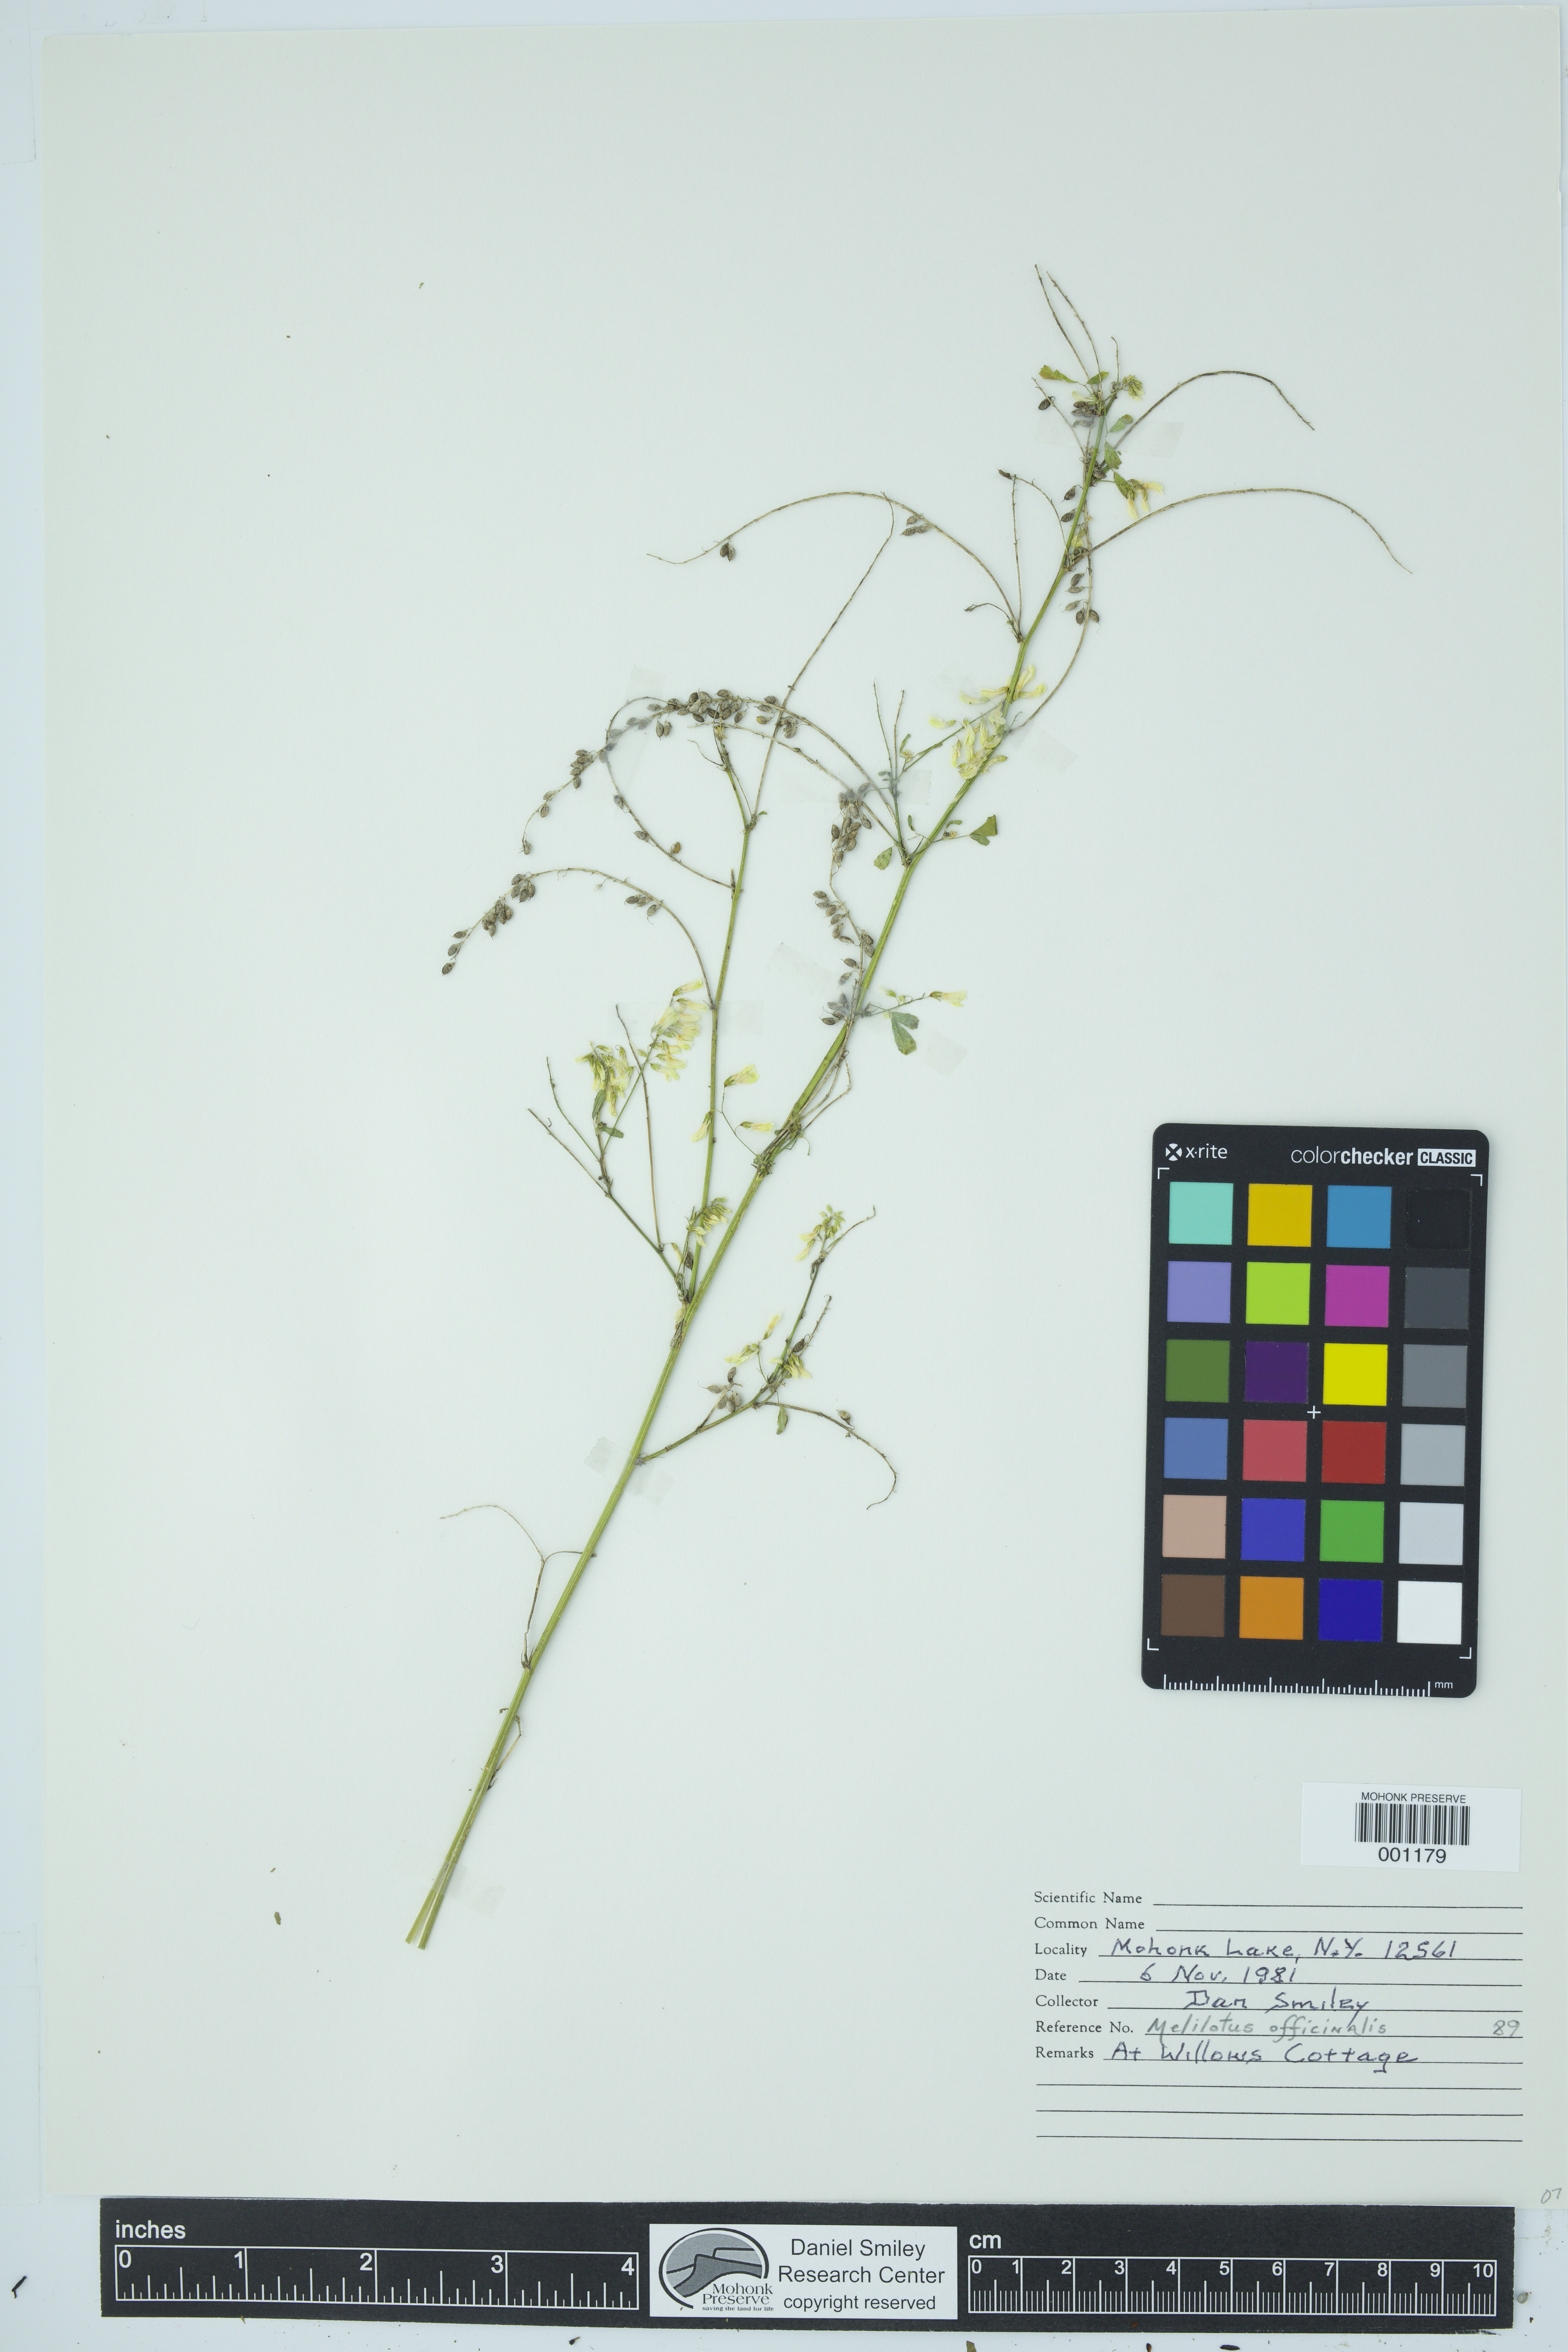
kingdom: Plantae
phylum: Tracheophyta
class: Magnoliopsida
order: Fabales
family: Fabaceae
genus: Melilotus
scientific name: Melilotus officinalis
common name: Sweetclover
